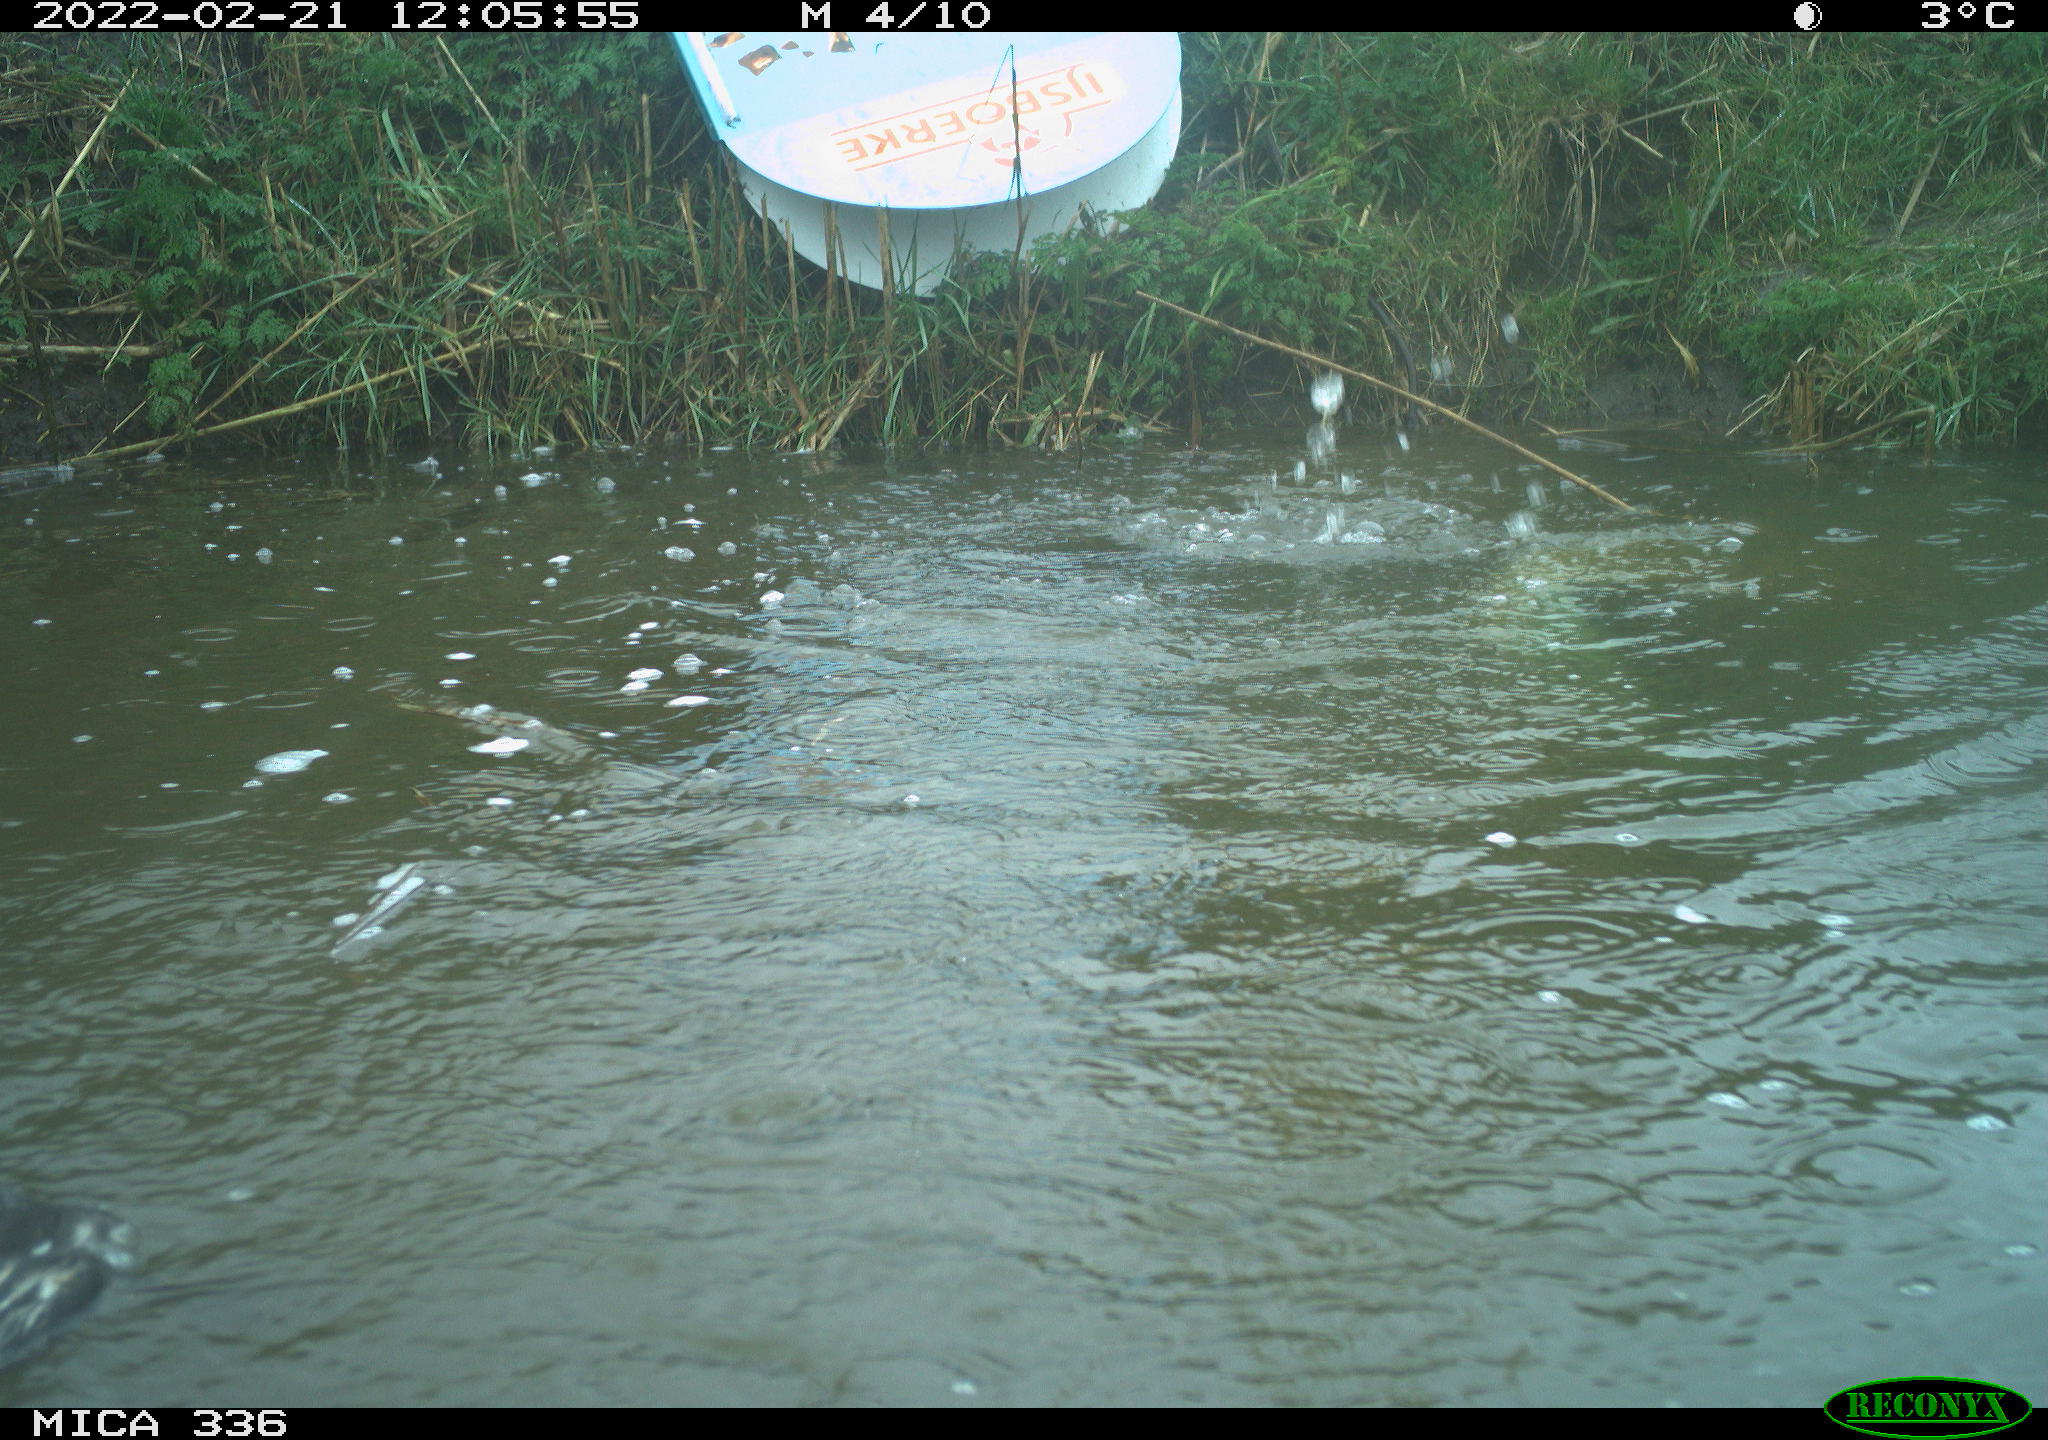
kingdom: Animalia
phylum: Chordata
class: Aves
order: Podicipediformes
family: Podicipedidae
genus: Podiceps
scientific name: Podiceps cristatus
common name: Great crested grebe
